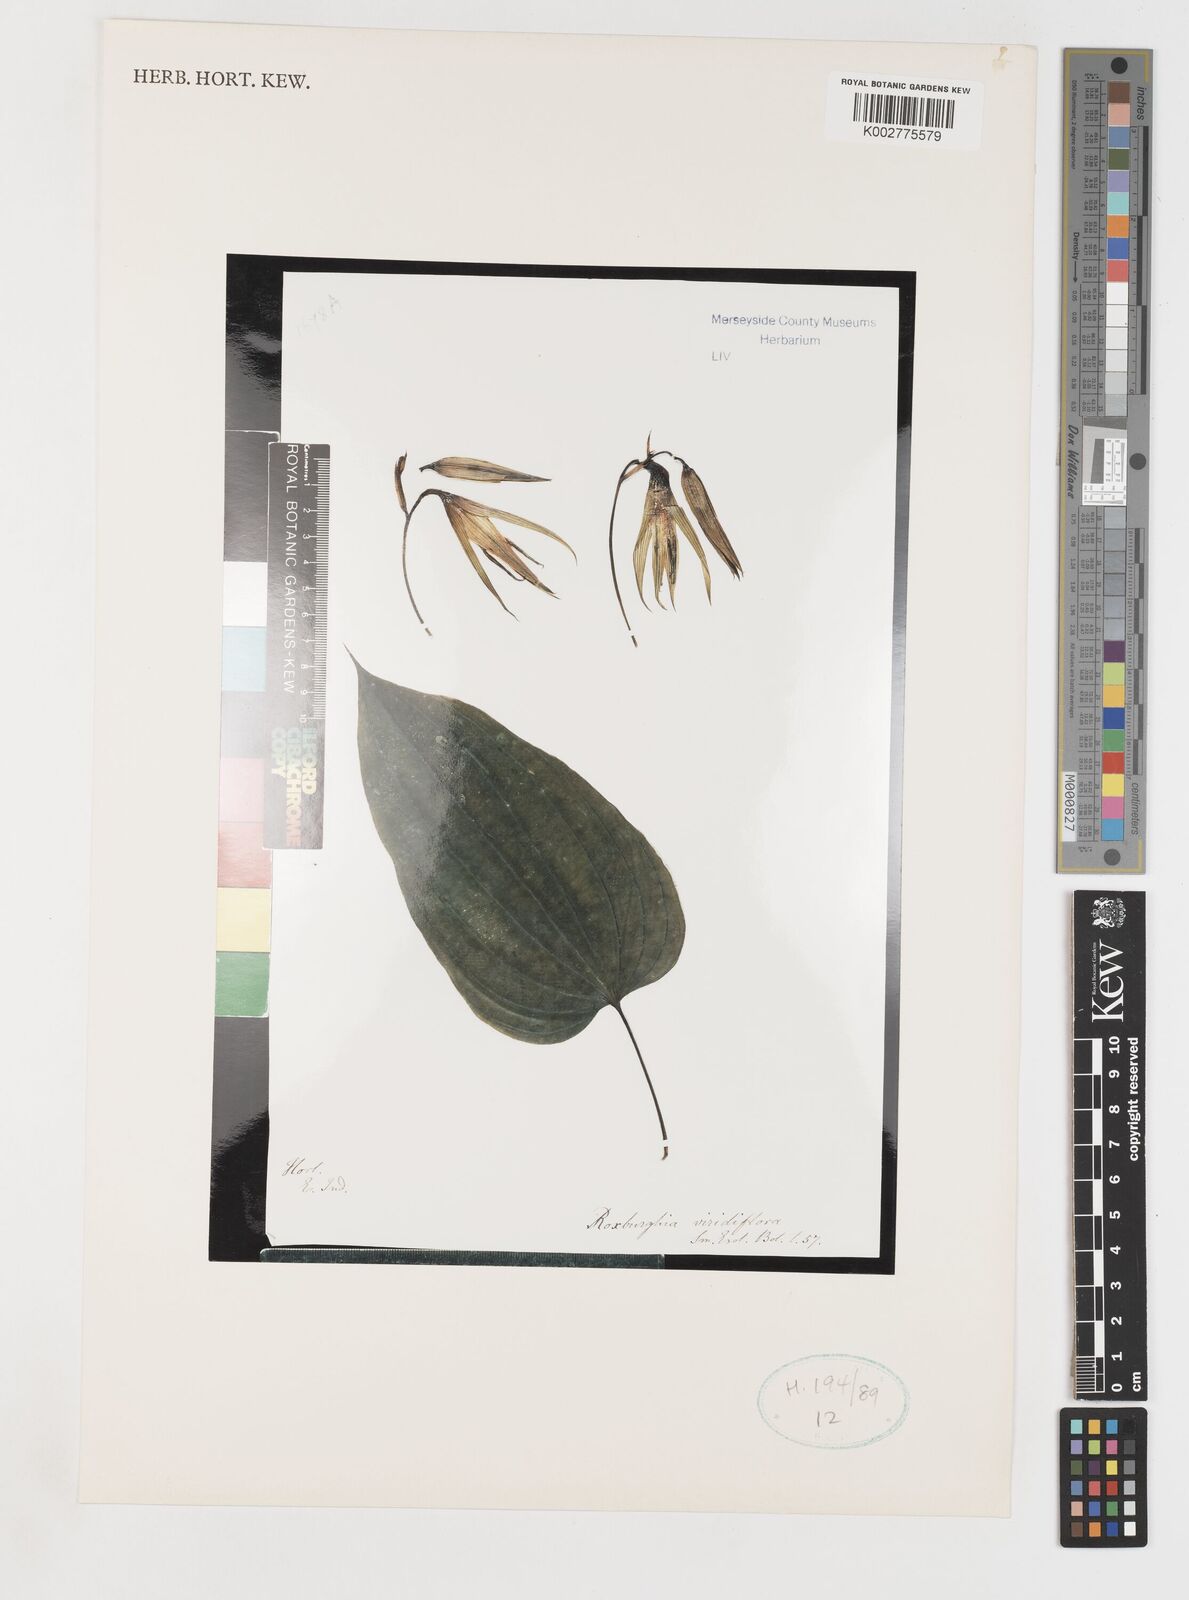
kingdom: Plantae
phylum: Tracheophyta
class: Liliopsida
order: Pandanales
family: Stemonaceae
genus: Stemona
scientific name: Stemona tuberosa
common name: Stemona
